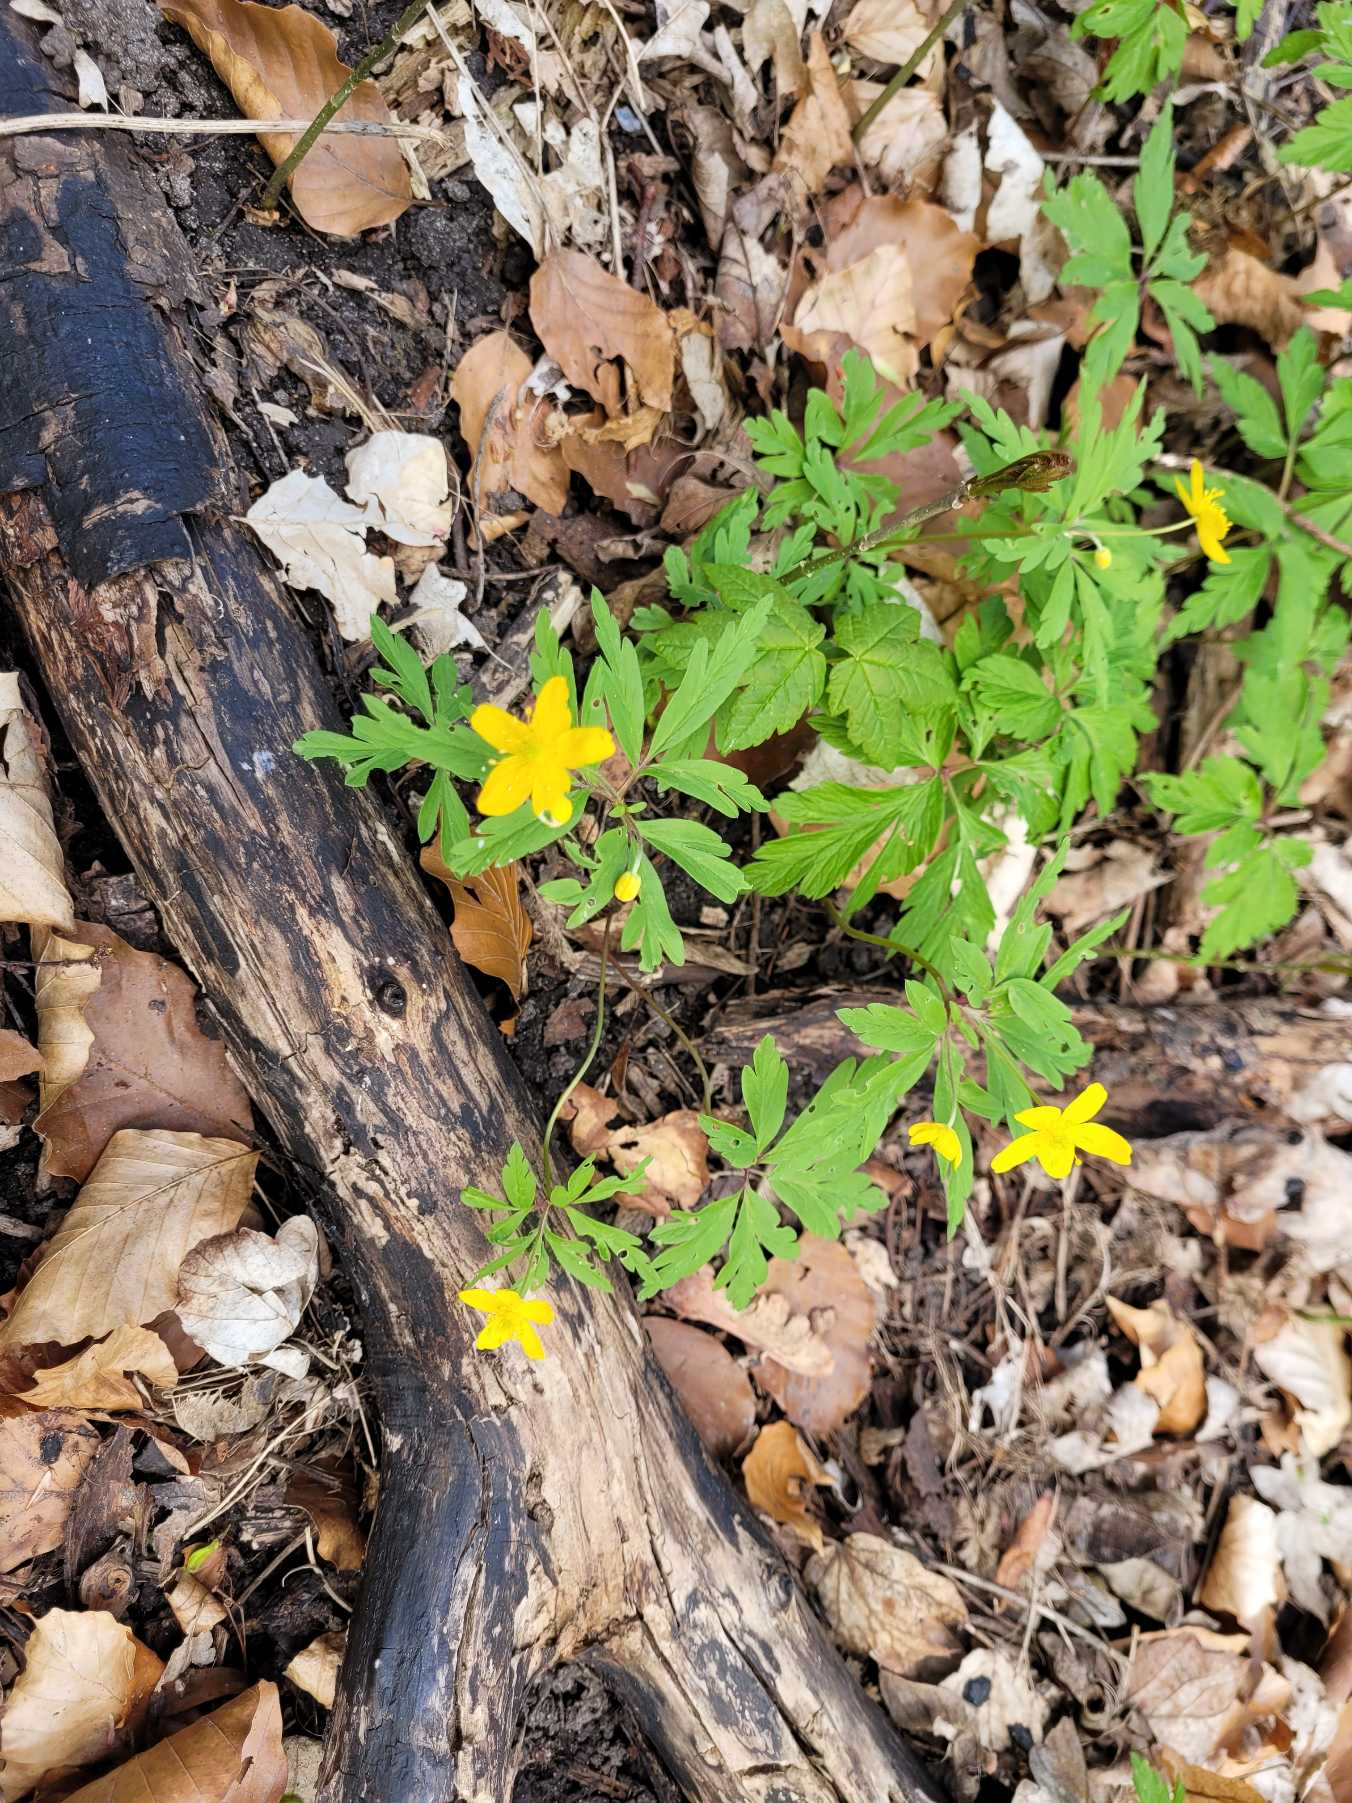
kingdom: Plantae
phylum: Tracheophyta
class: Magnoliopsida
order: Ranunculales
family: Ranunculaceae
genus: Anemone
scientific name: Anemone ranunculoides
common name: Gul anemone
